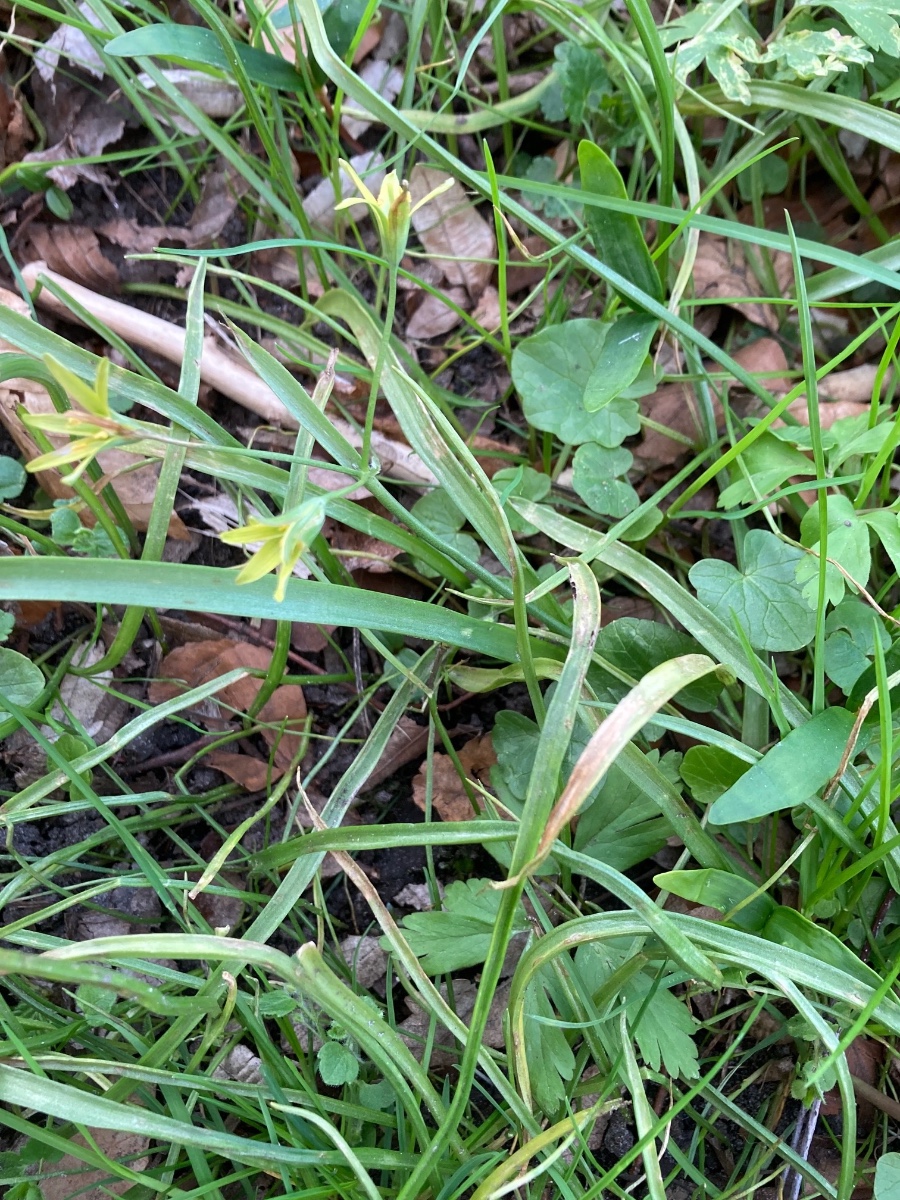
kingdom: Fungi
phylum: Basidiomycota
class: Ustilaginomycetes
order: Urocystidales
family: Urocystidaceae
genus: Vankya
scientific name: Vankya ornithogali
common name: Yellow star-of-bethlehem smut
